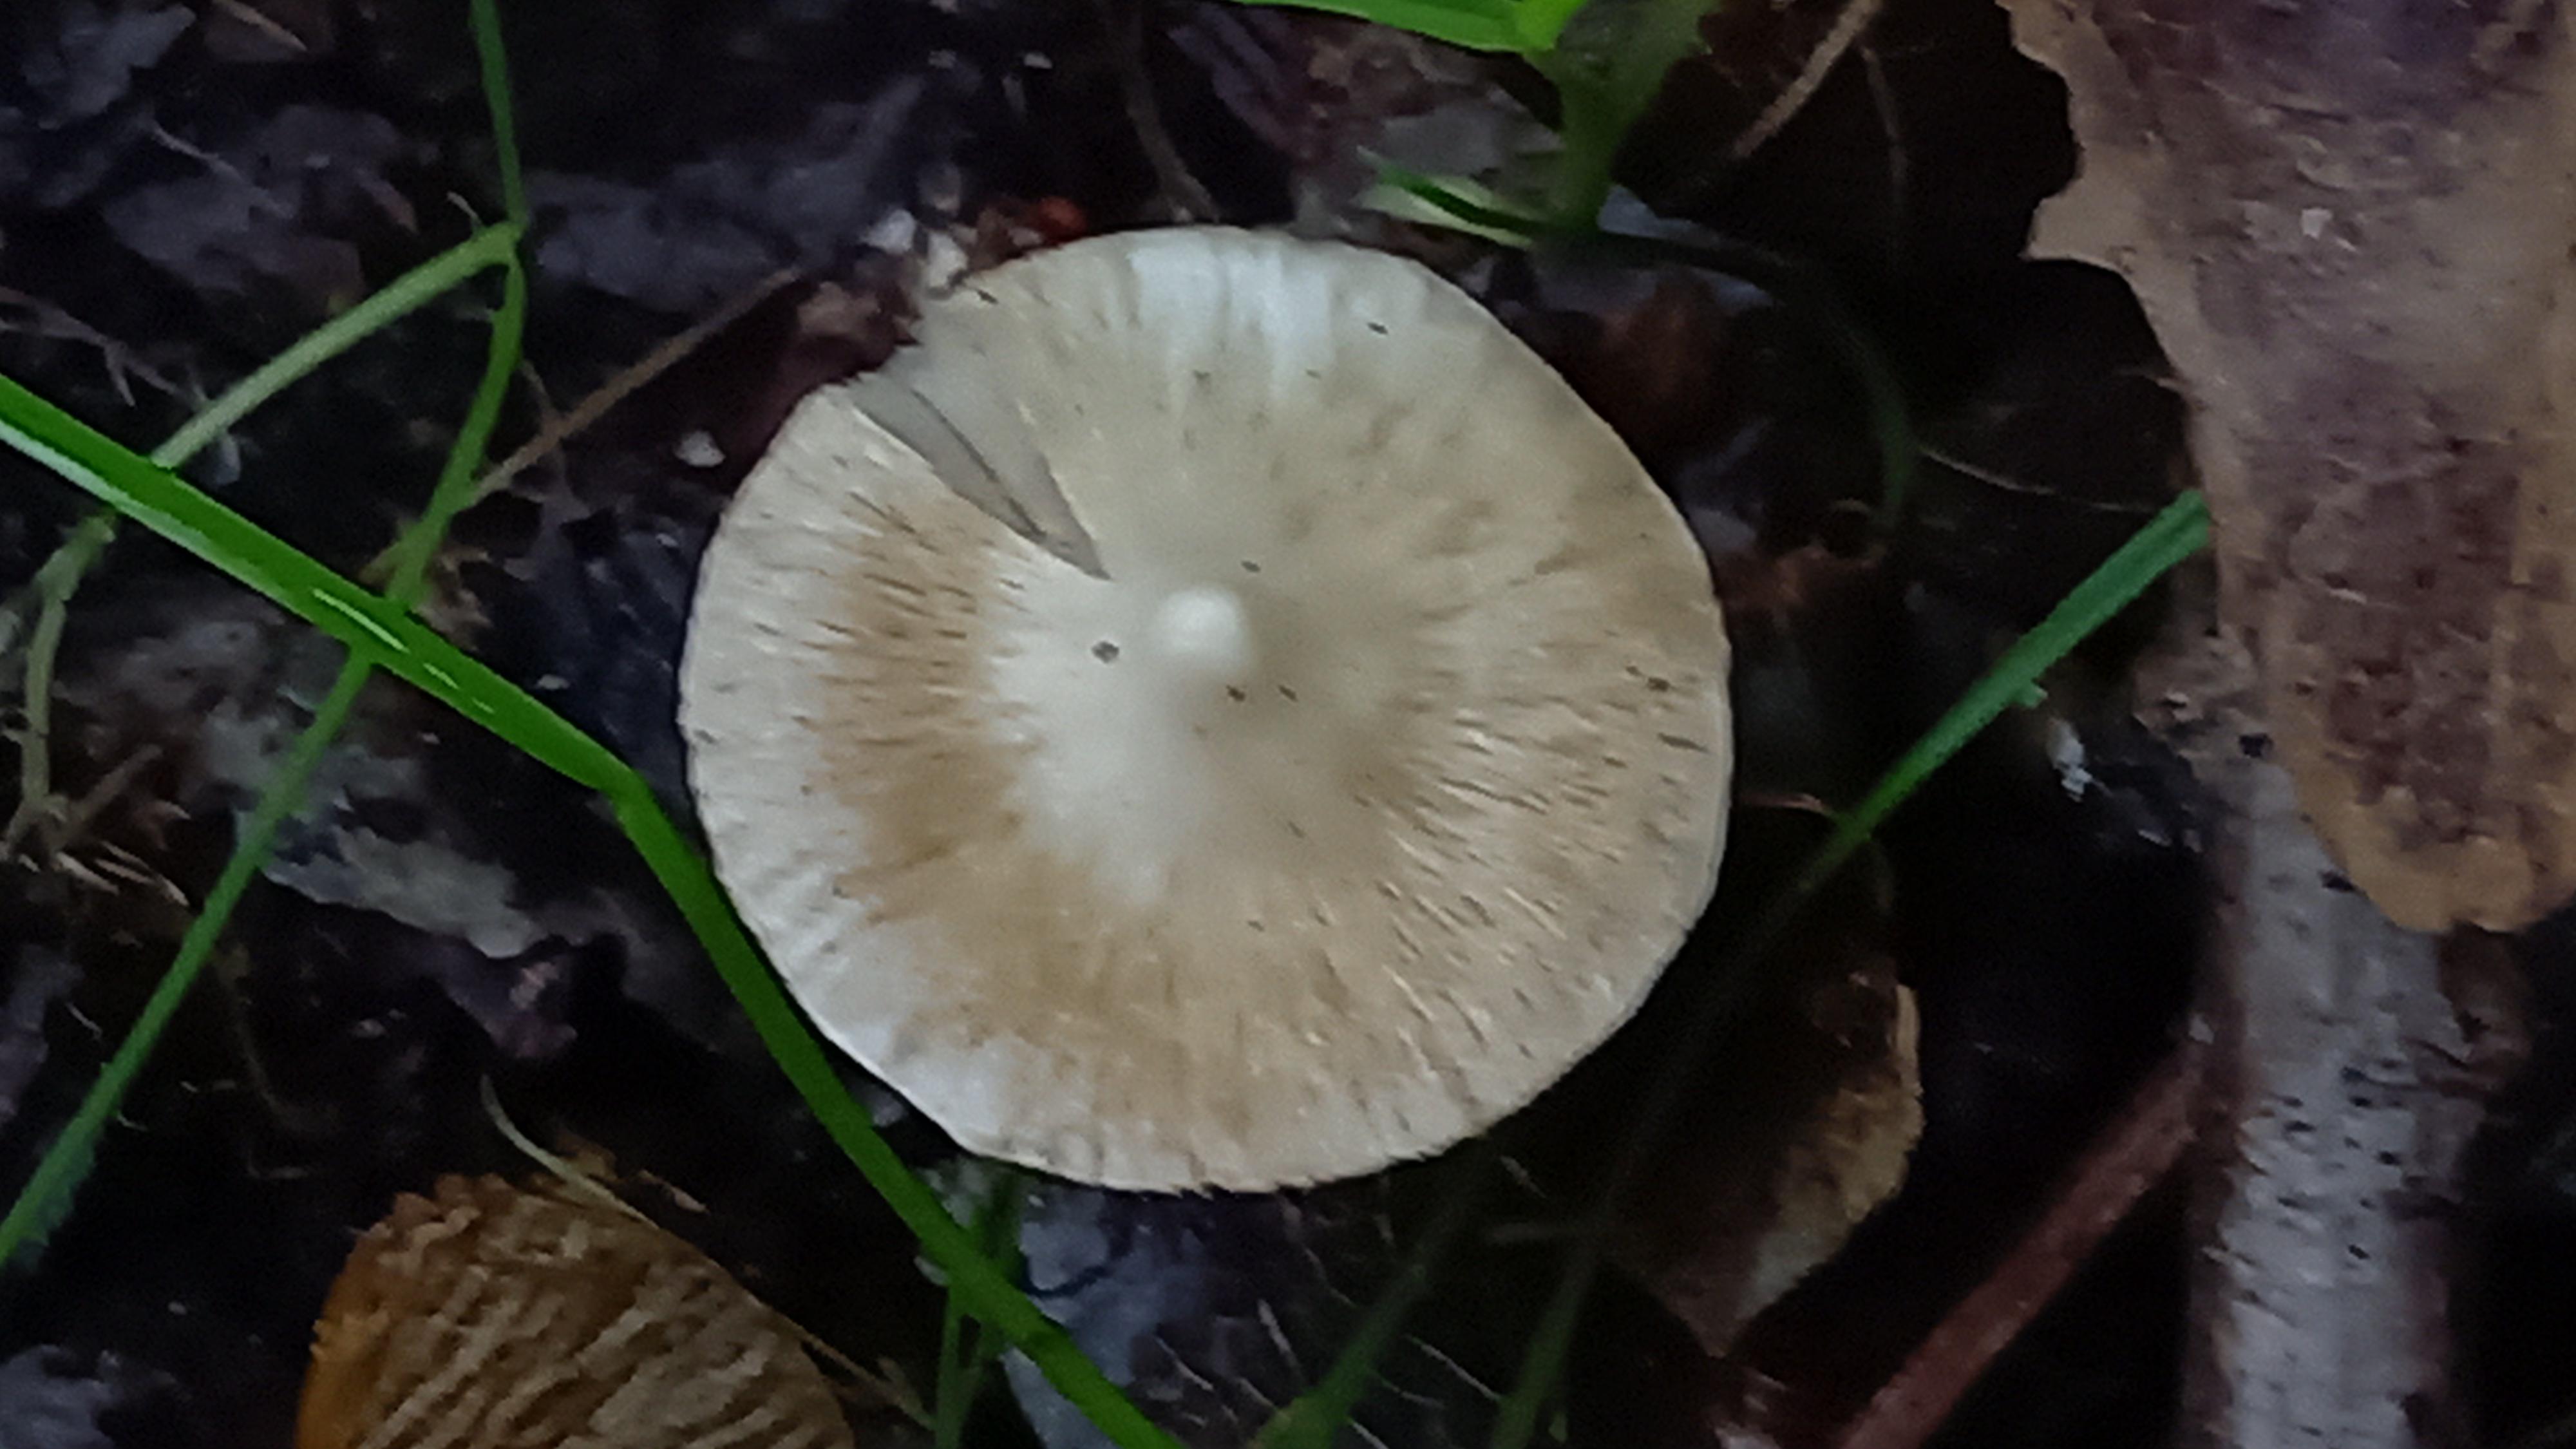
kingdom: Fungi
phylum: Basidiomycota
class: Agaricomycetes
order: Agaricales
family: Inocybaceae
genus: Inocybe
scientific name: Inocybe
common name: almindelig trævlhat
